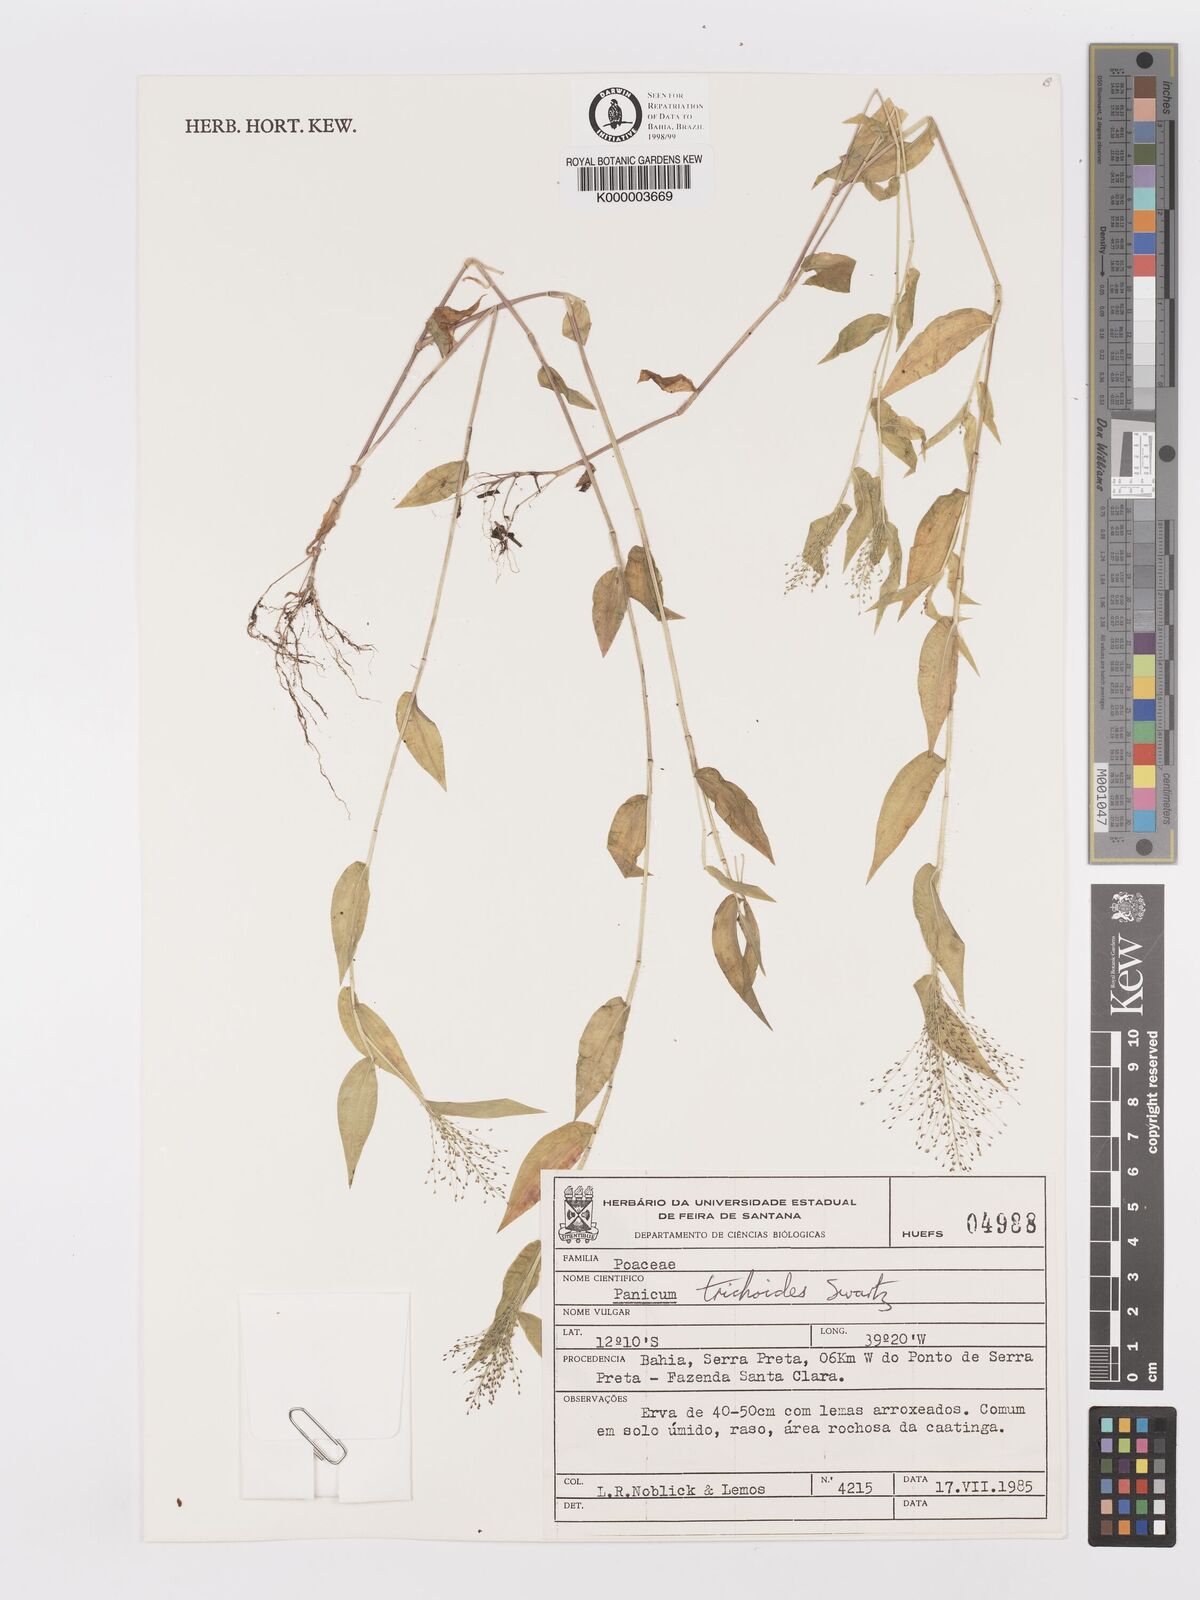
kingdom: Plantae
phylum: Tracheophyta
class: Liliopsida
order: Poales
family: Poaceae
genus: Panicum
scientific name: Panicum
